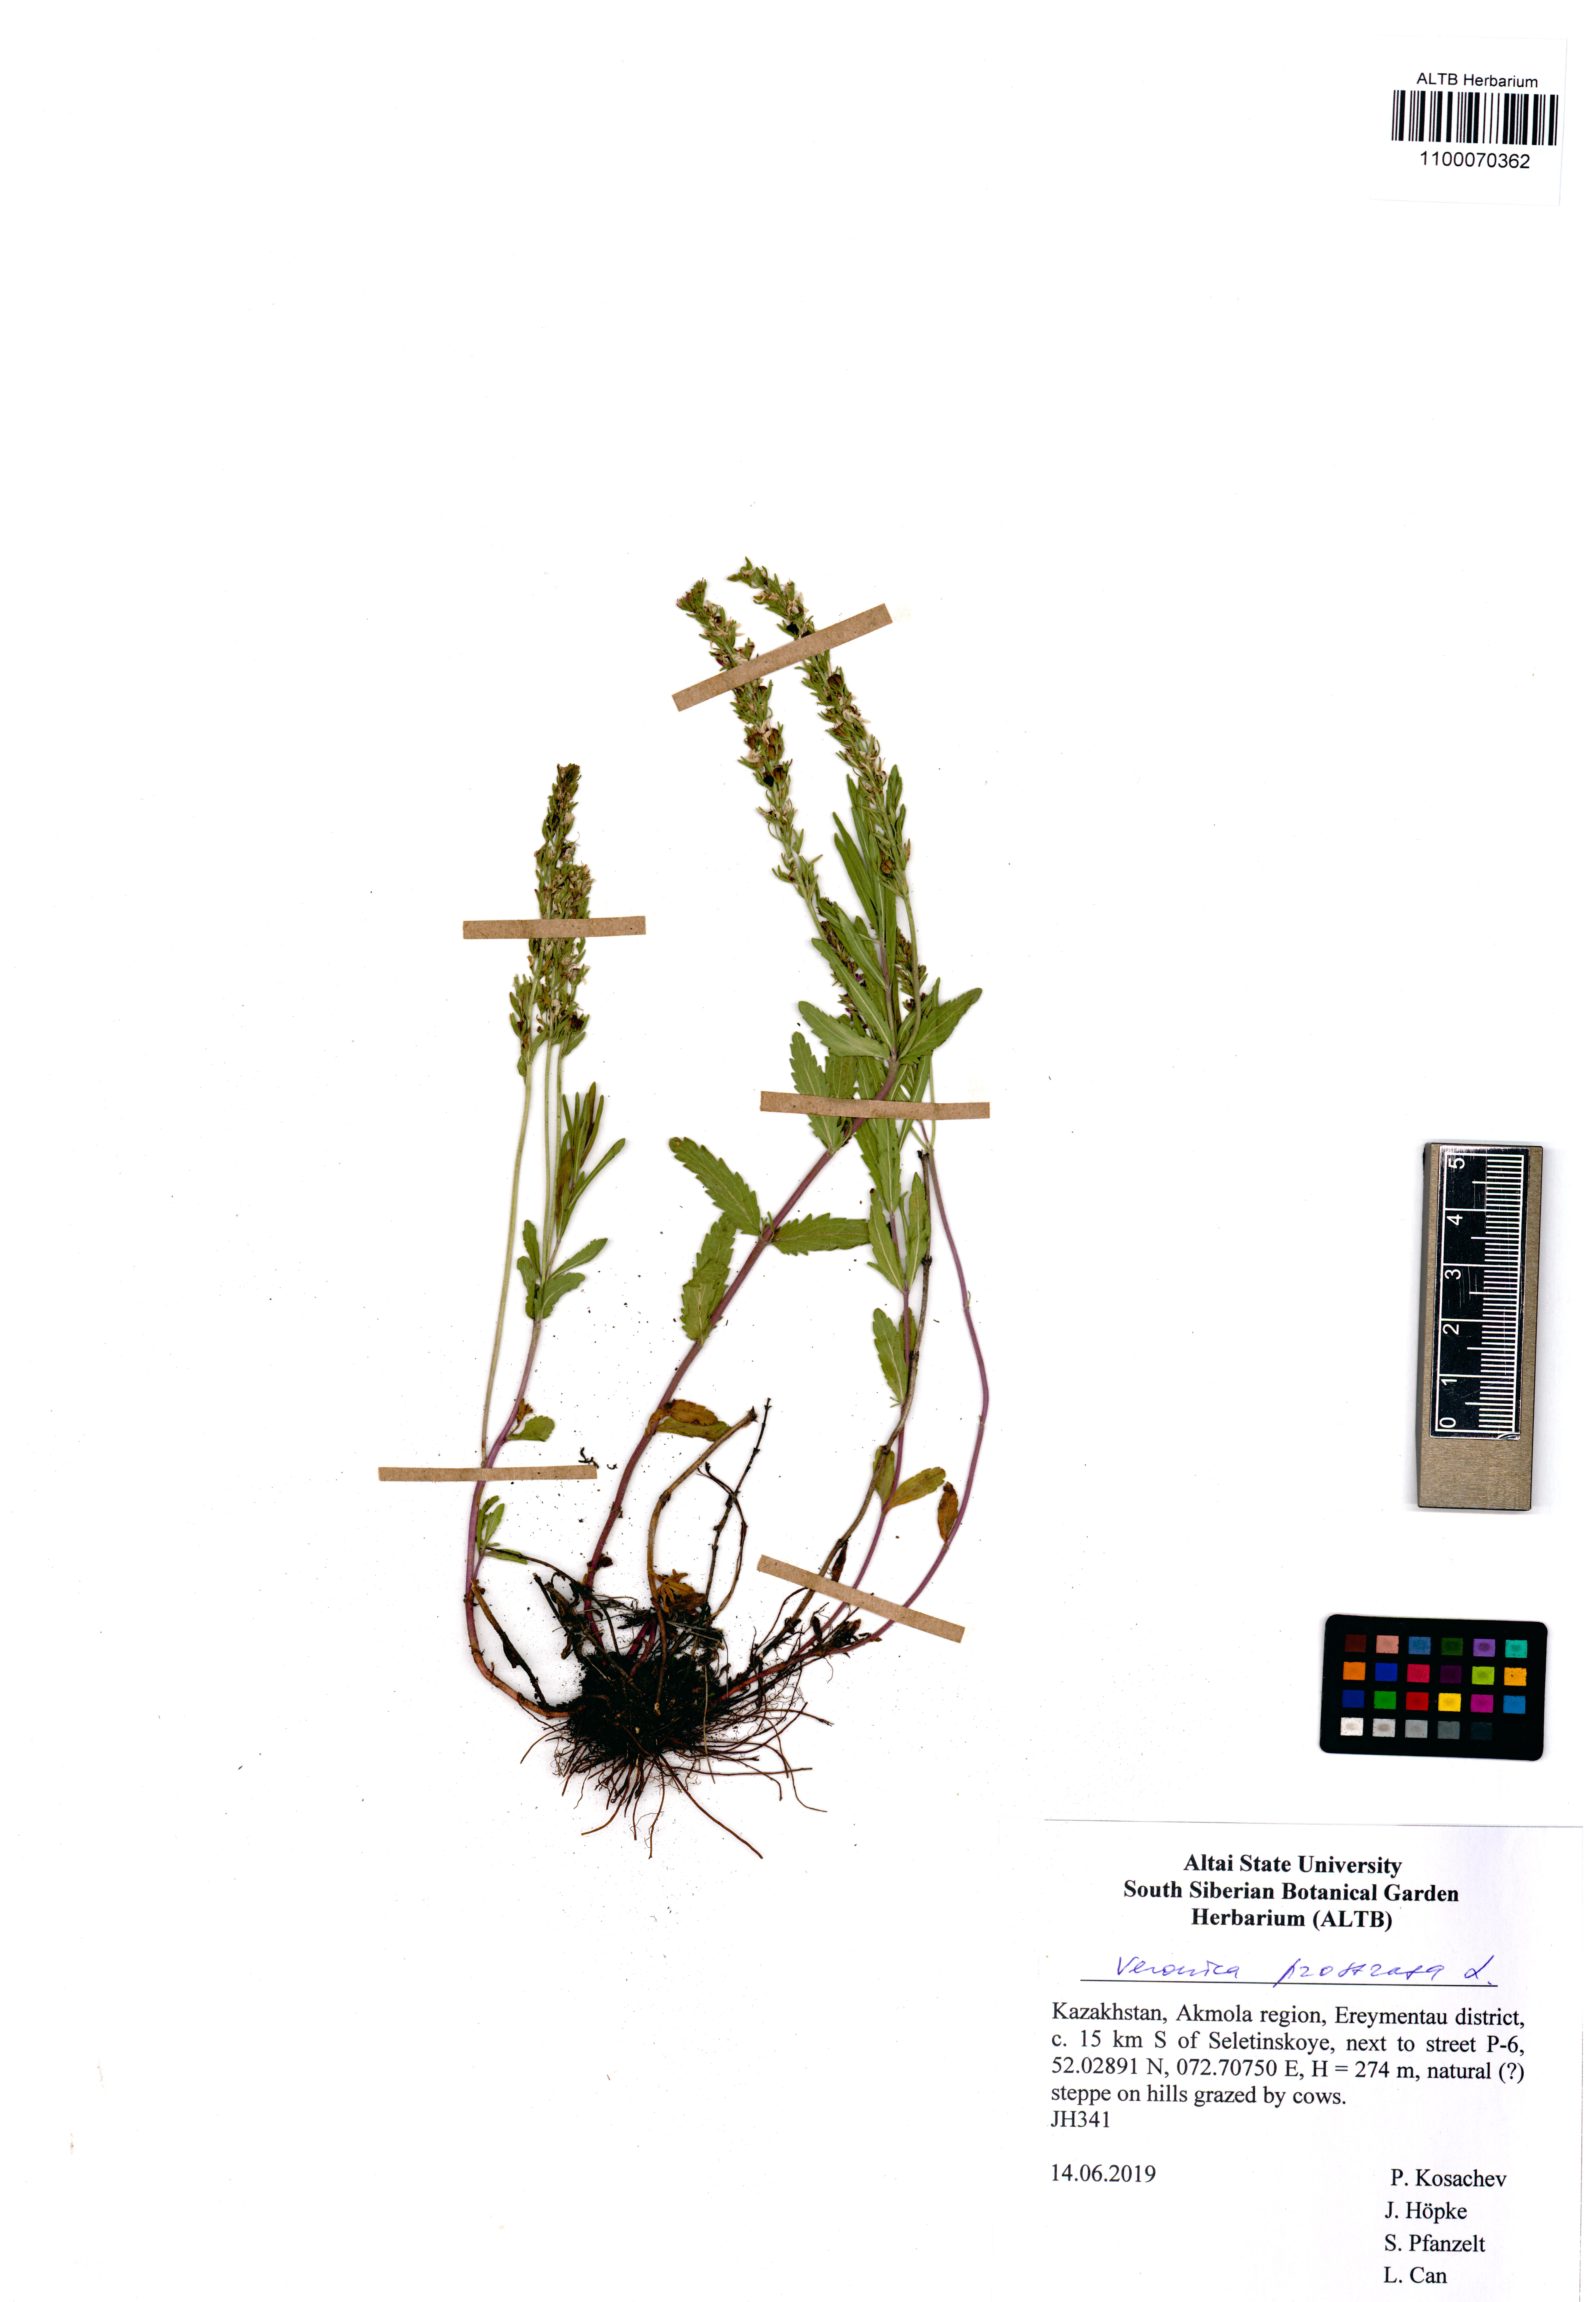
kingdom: Plantae
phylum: Tracheophyta
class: Magnoliopsida
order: Lamiales
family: Plantaginaceae
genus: Veronica
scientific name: Veronica prostrata
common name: Prostrate speedwell
